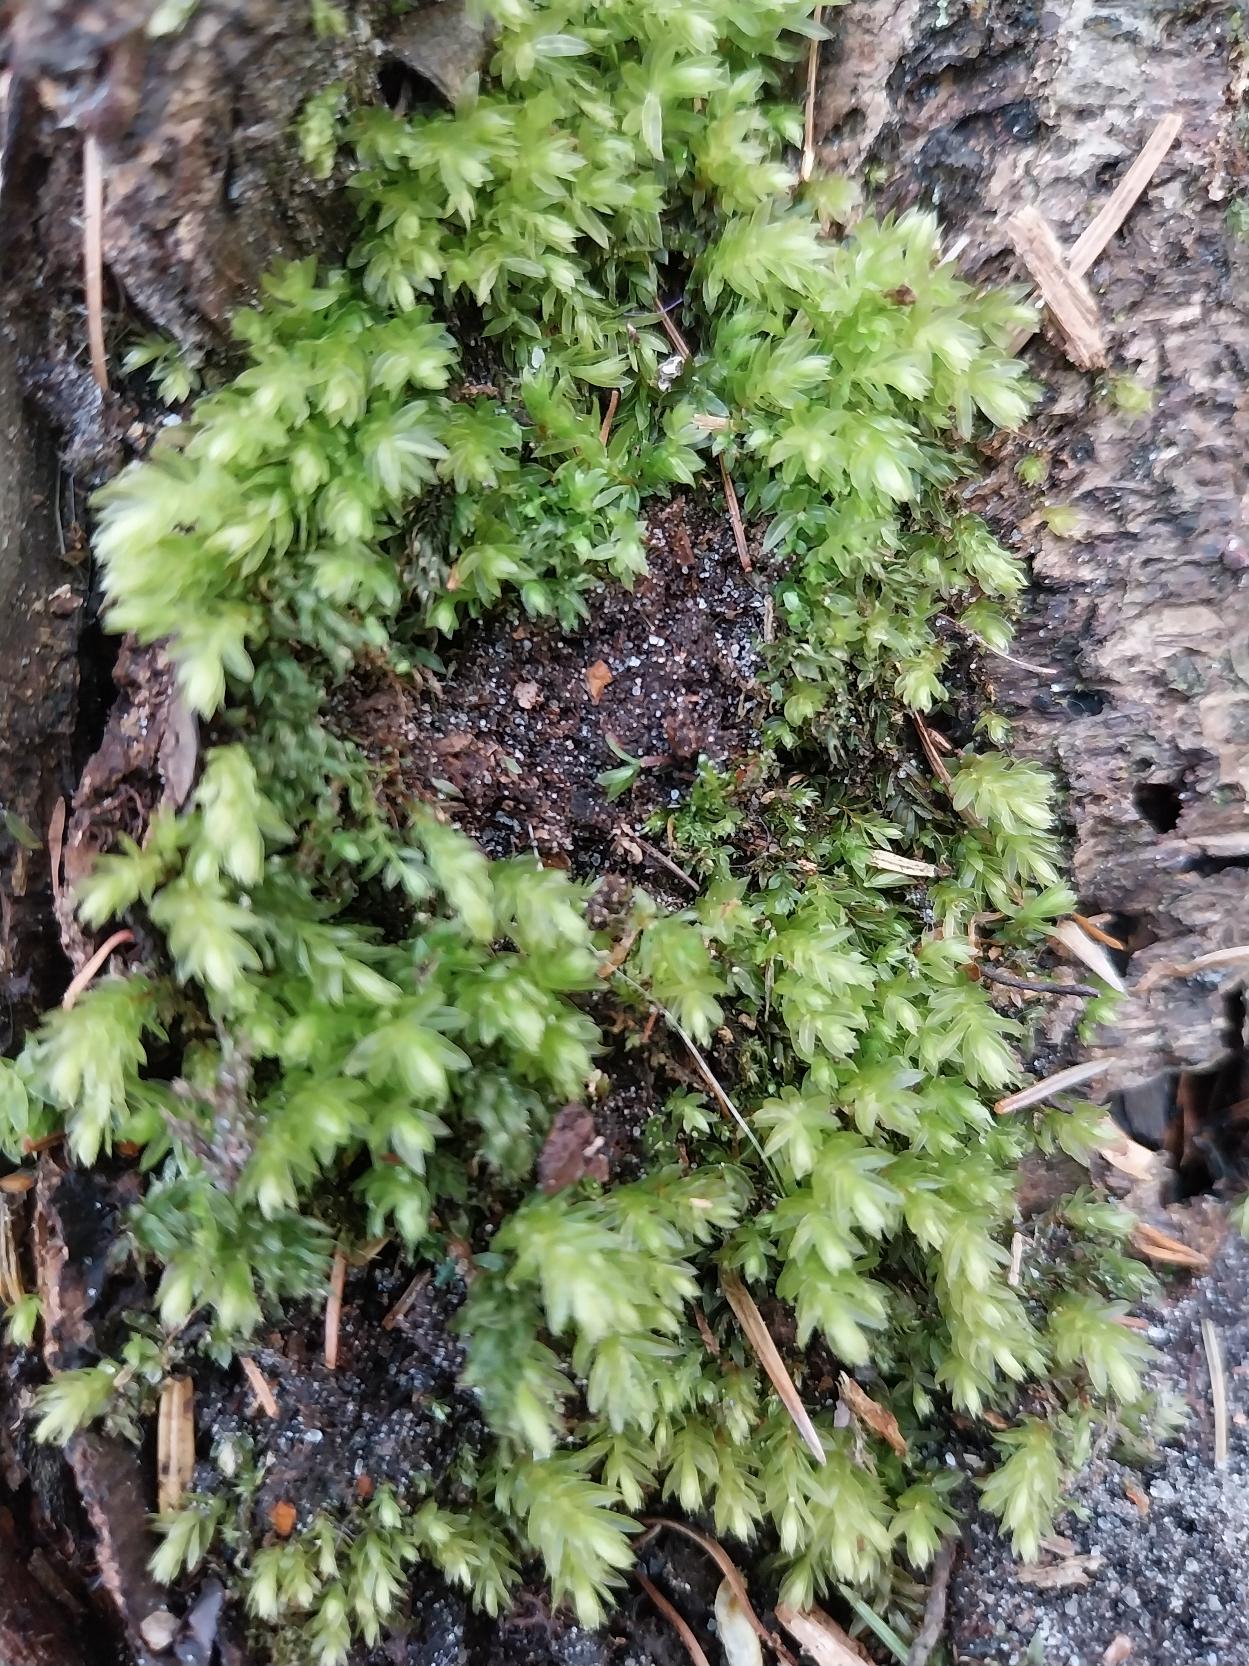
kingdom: Plantae
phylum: Bryophyta
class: Bryopsida
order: Bryales
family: Mniaceae
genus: Mnium
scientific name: Mnium hornum
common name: Brunfiltet stjernemos
